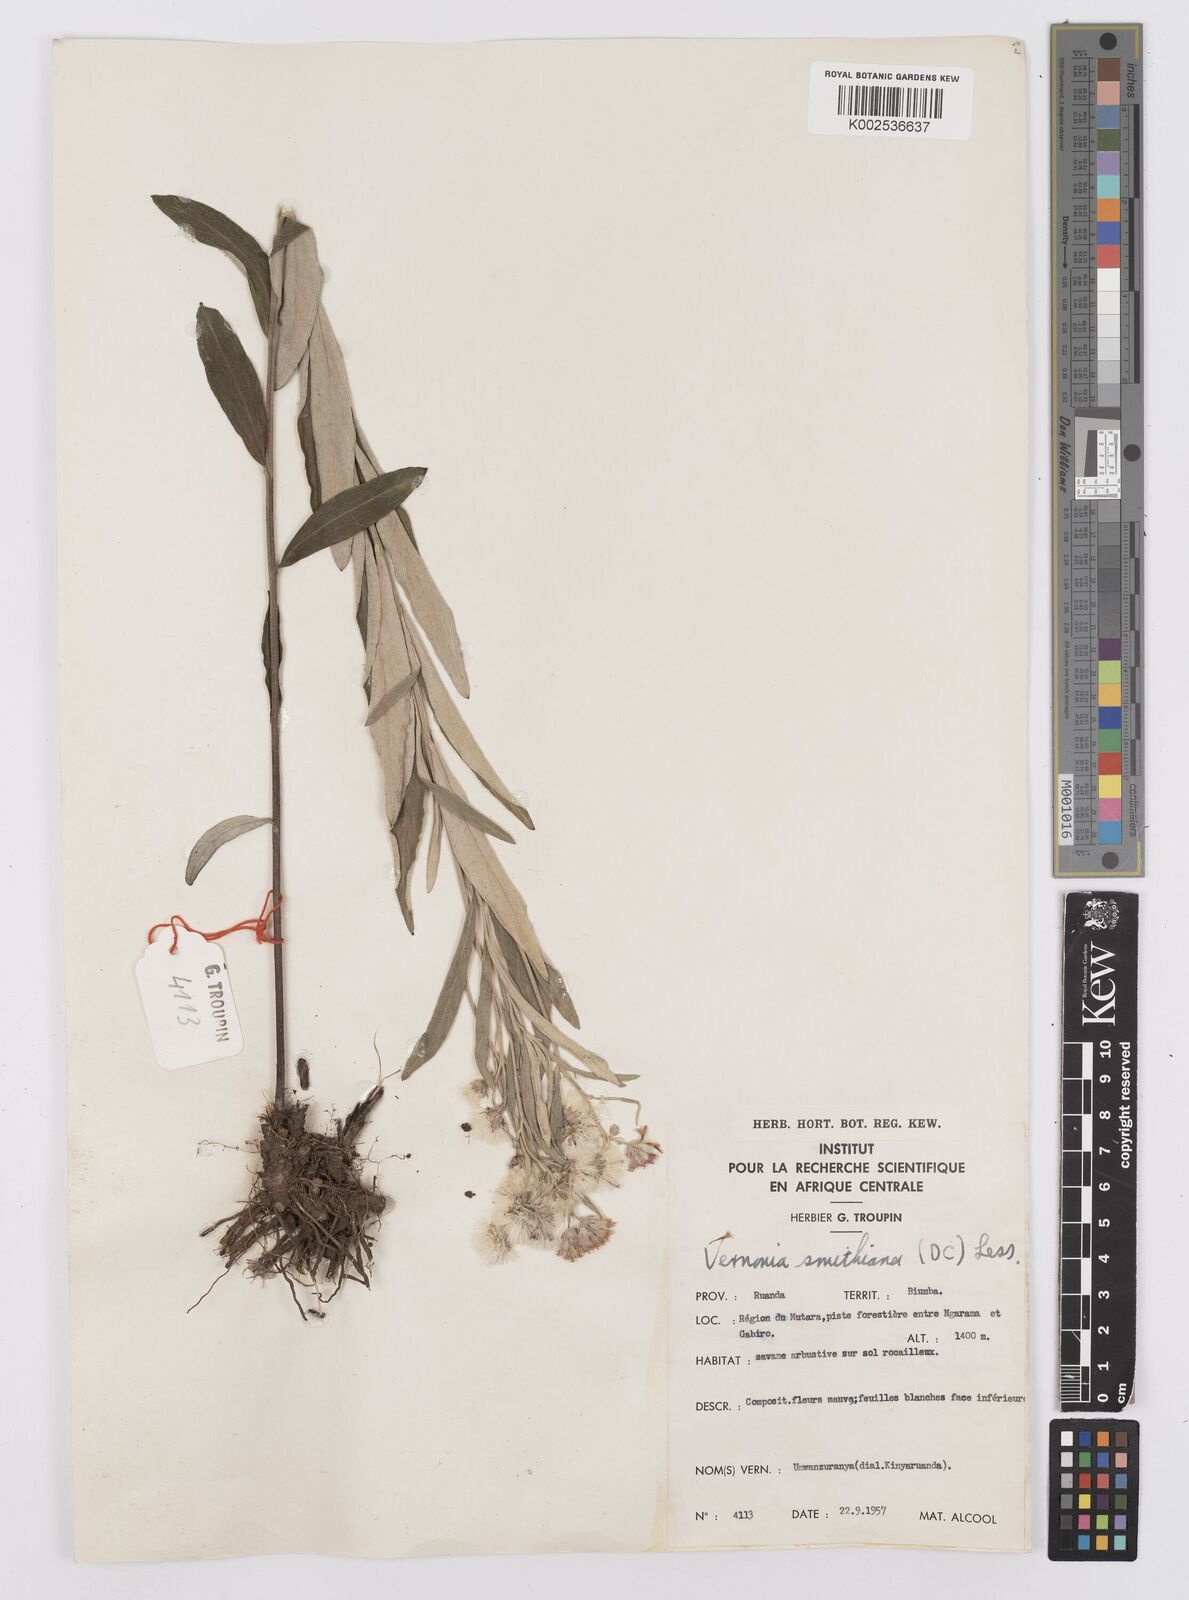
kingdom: Plantae
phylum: Tracheophyta
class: Magnoliopsida
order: Asterales
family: Asteraceae
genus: Hilliardiella
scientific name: Hilliardiella smithiana
